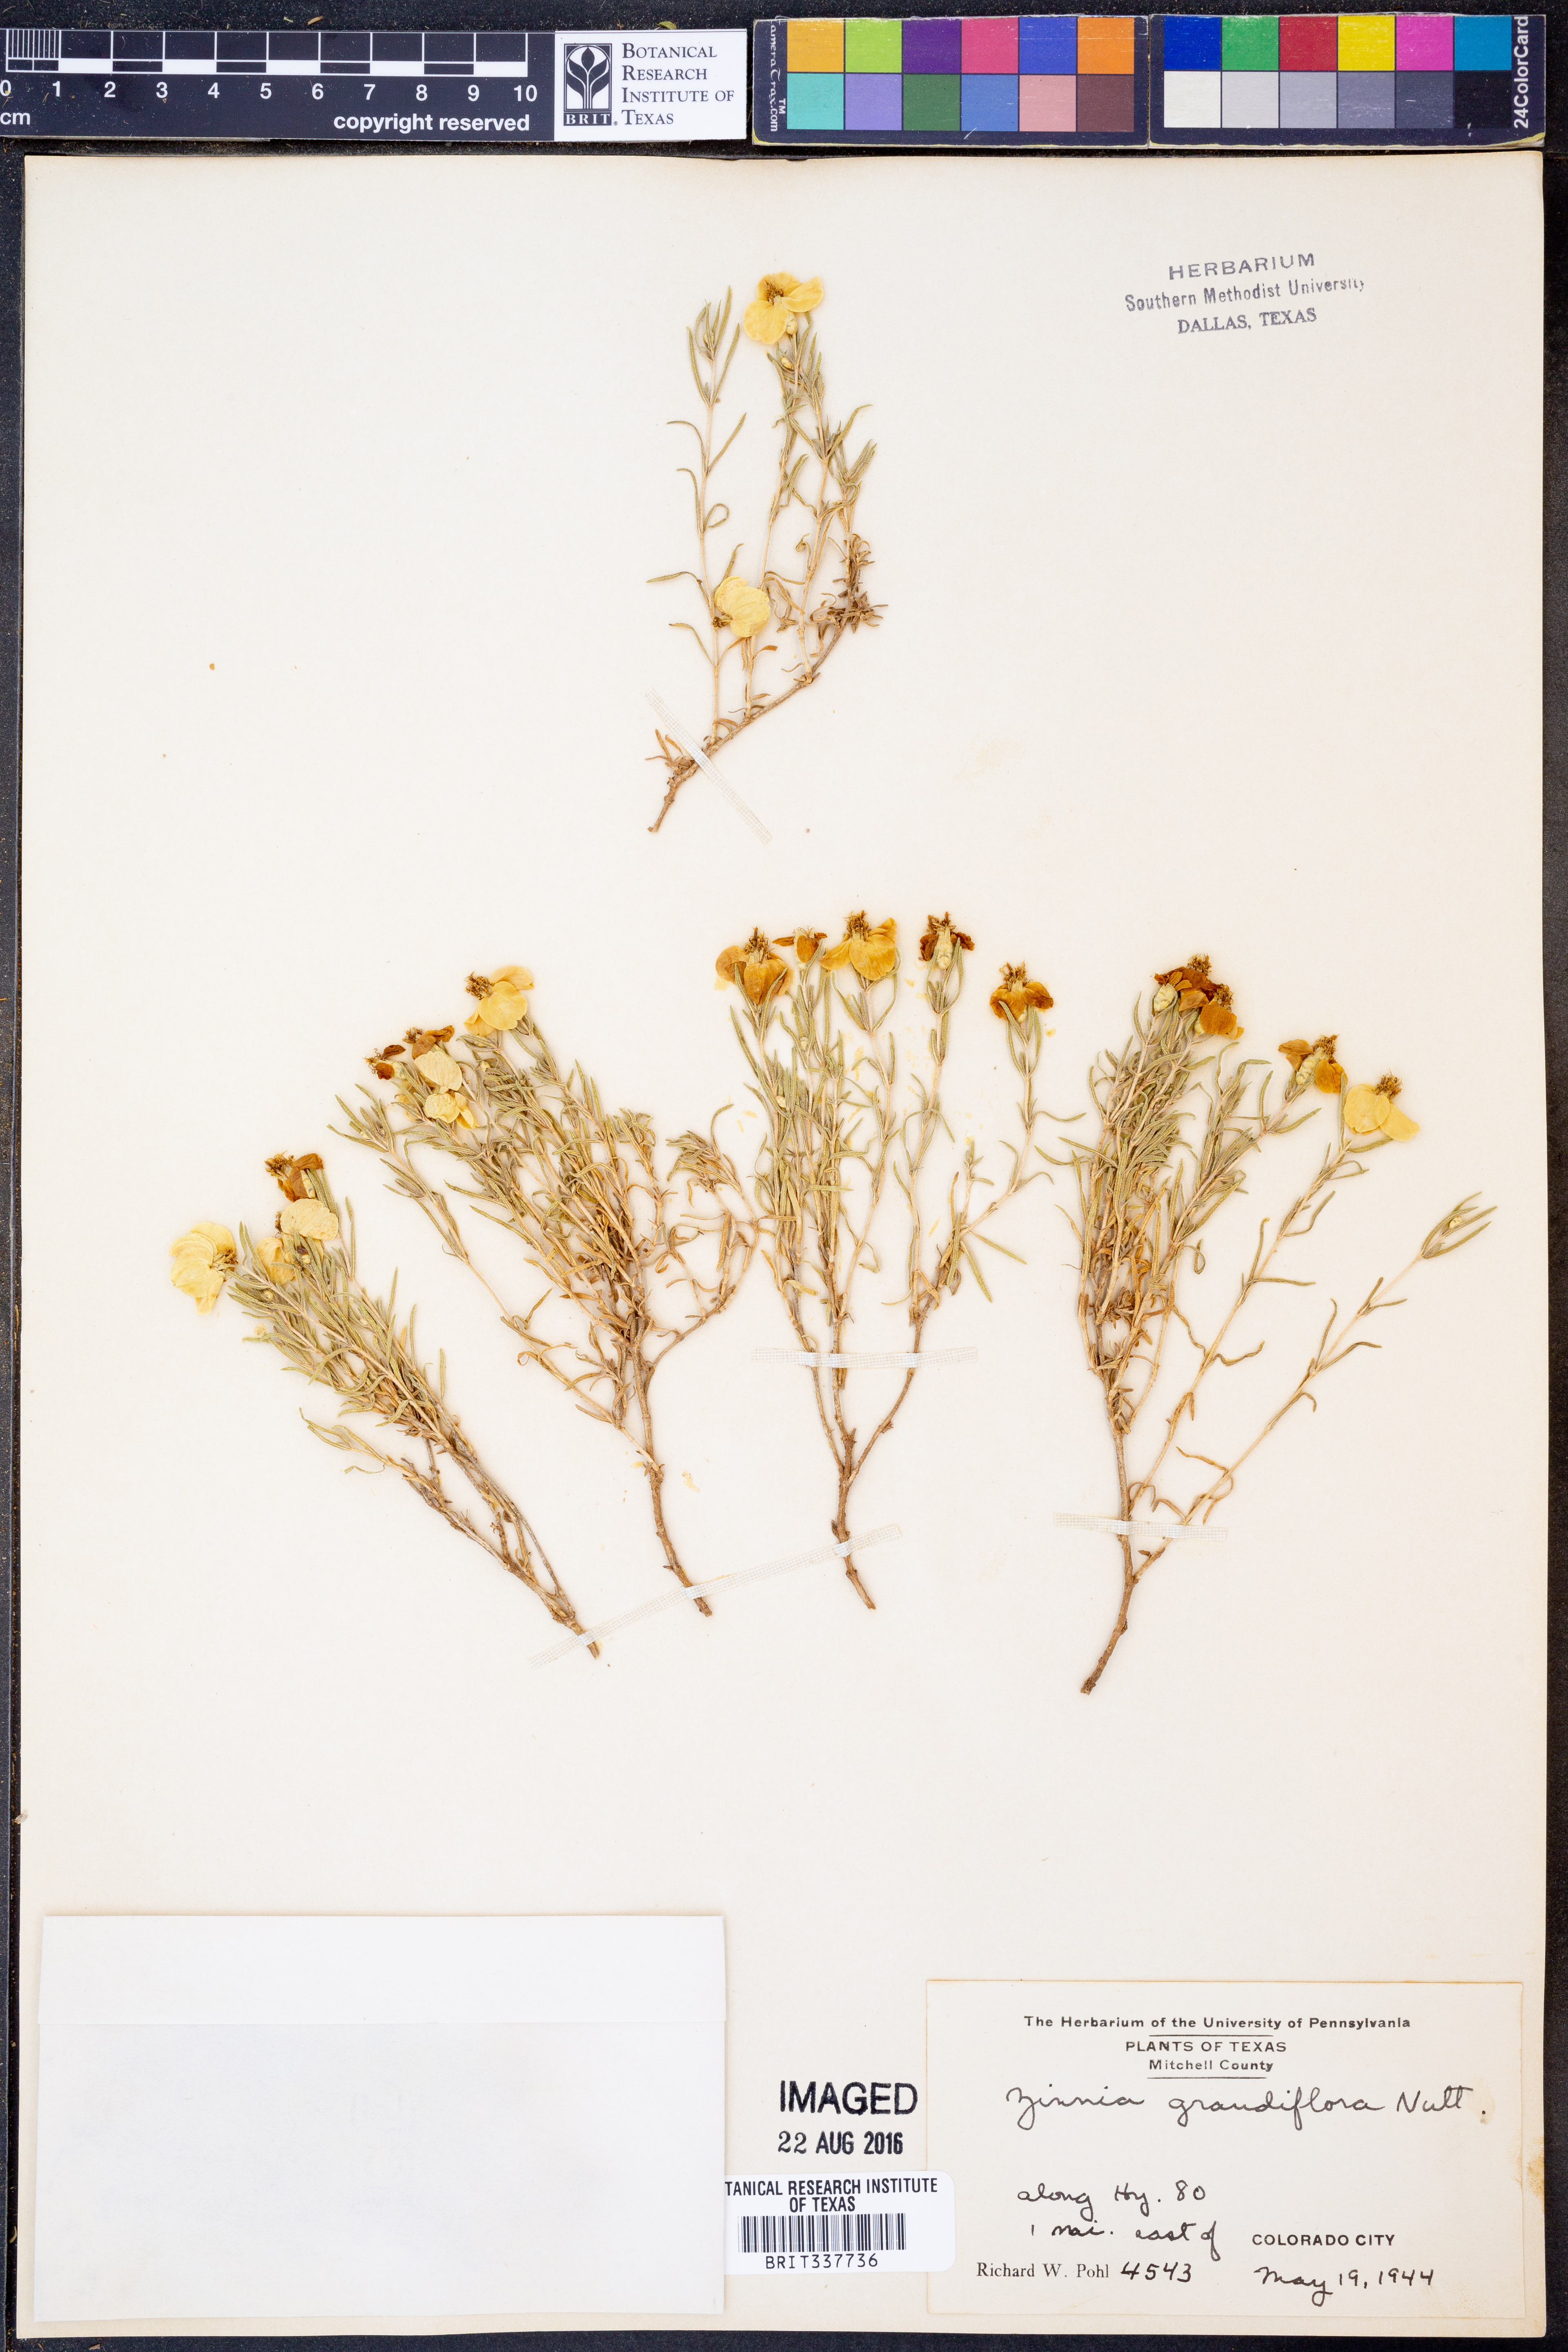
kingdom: Plantae
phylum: Tracheophyta
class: Magnoliopsida
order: Asterales
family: Asteraceae
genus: Zinnia
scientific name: Zinnia grandiflora
